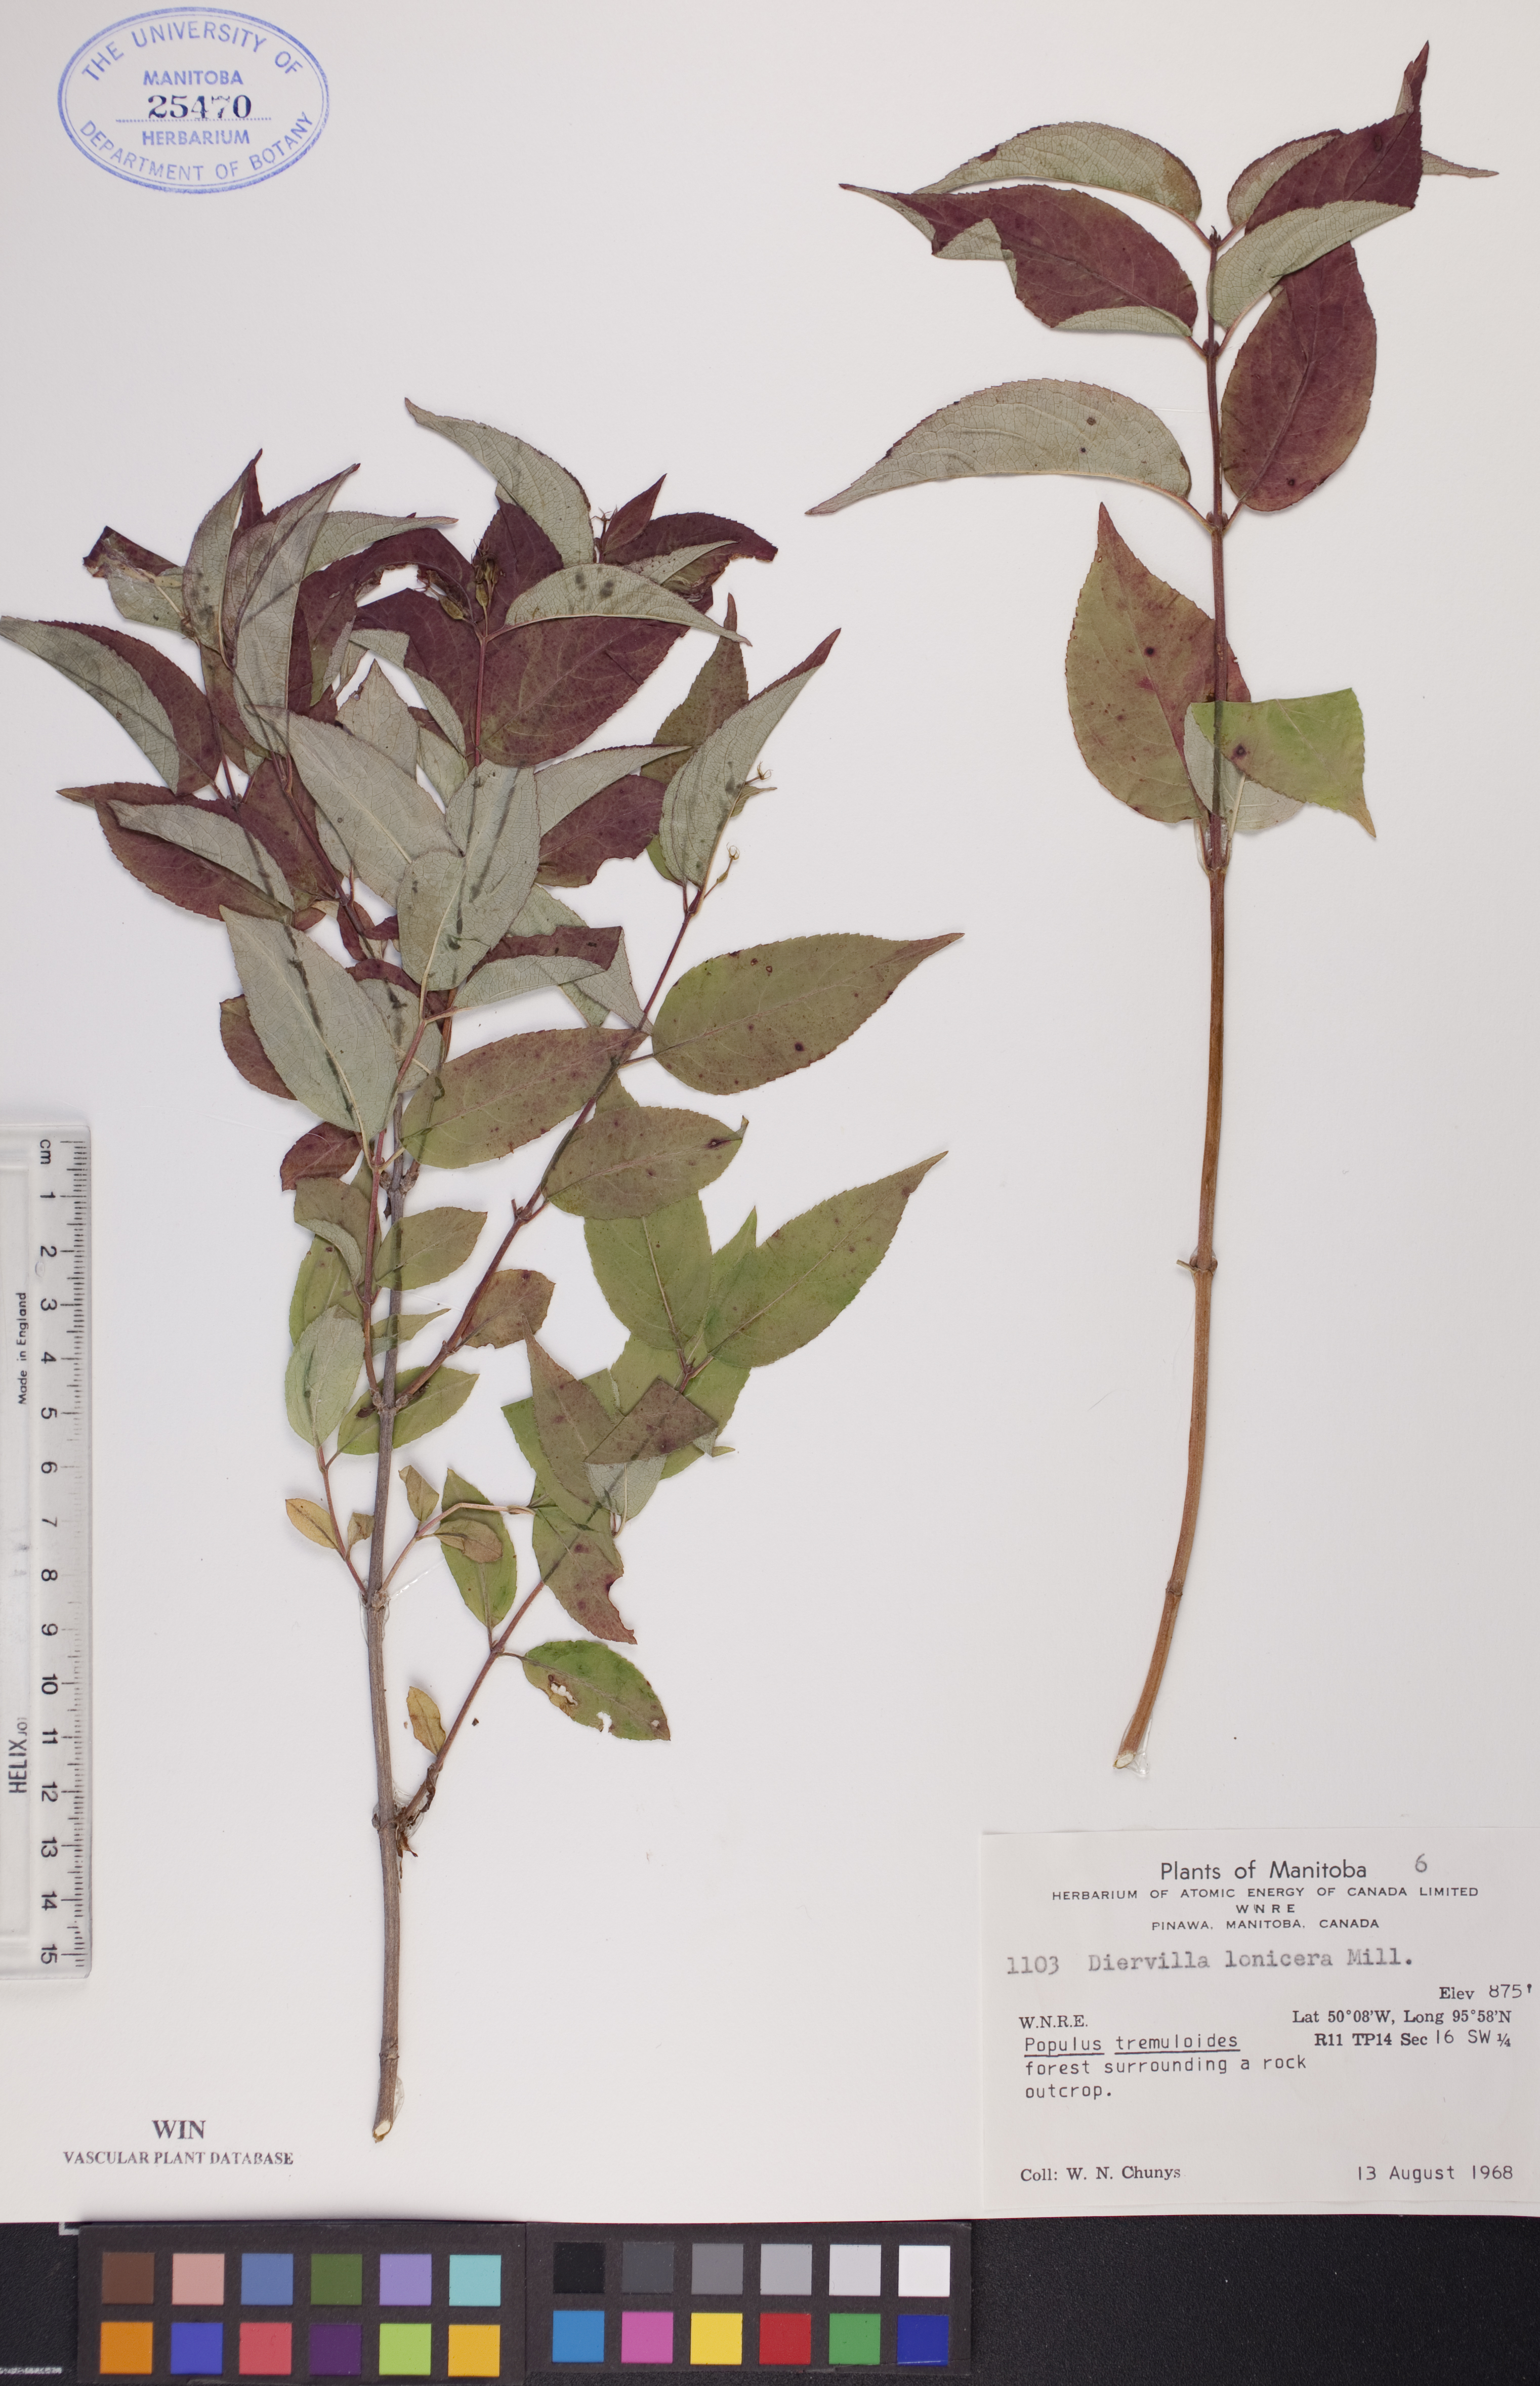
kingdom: Plantae
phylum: Tracheophyta
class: Magnoliopsida
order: Dipsacales
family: Caprifoliaceae
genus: Diervilla
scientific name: Diervilla lonicera
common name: Bush-honeysuckle
